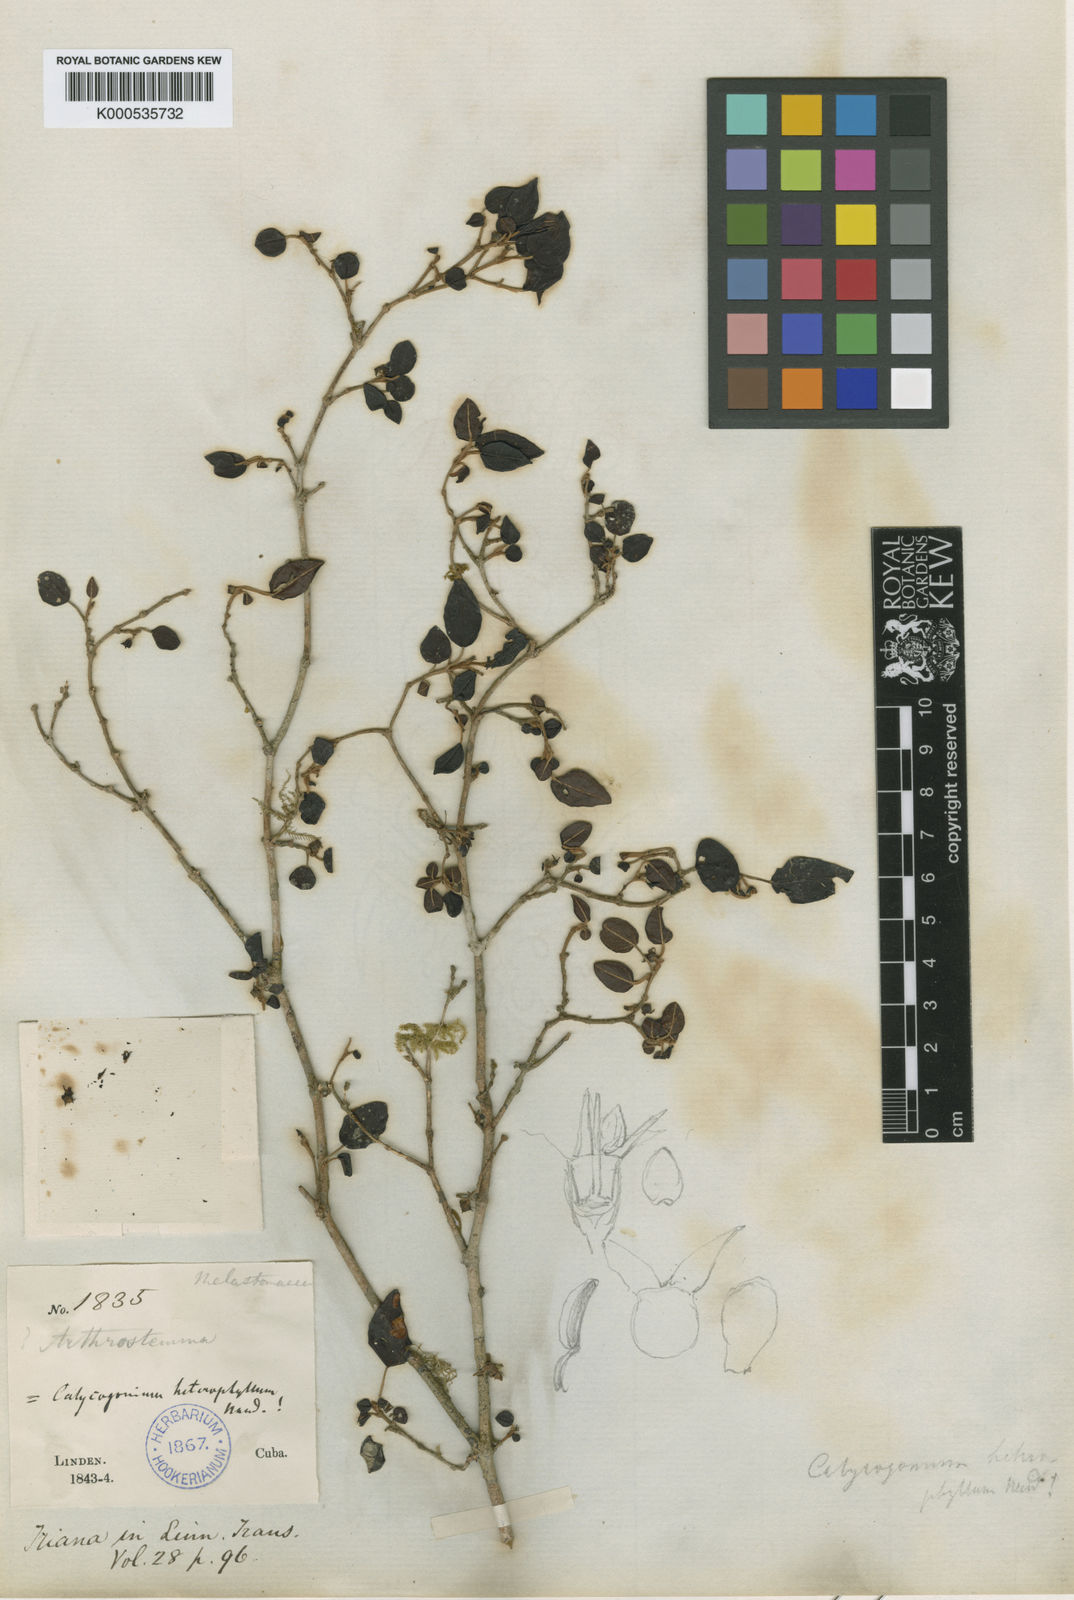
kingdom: Plantae
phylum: Tracheophyta
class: Magnoliopsida
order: Myrtales
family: Melastomataceae
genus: Miconia
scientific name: Miconia heterophylla
